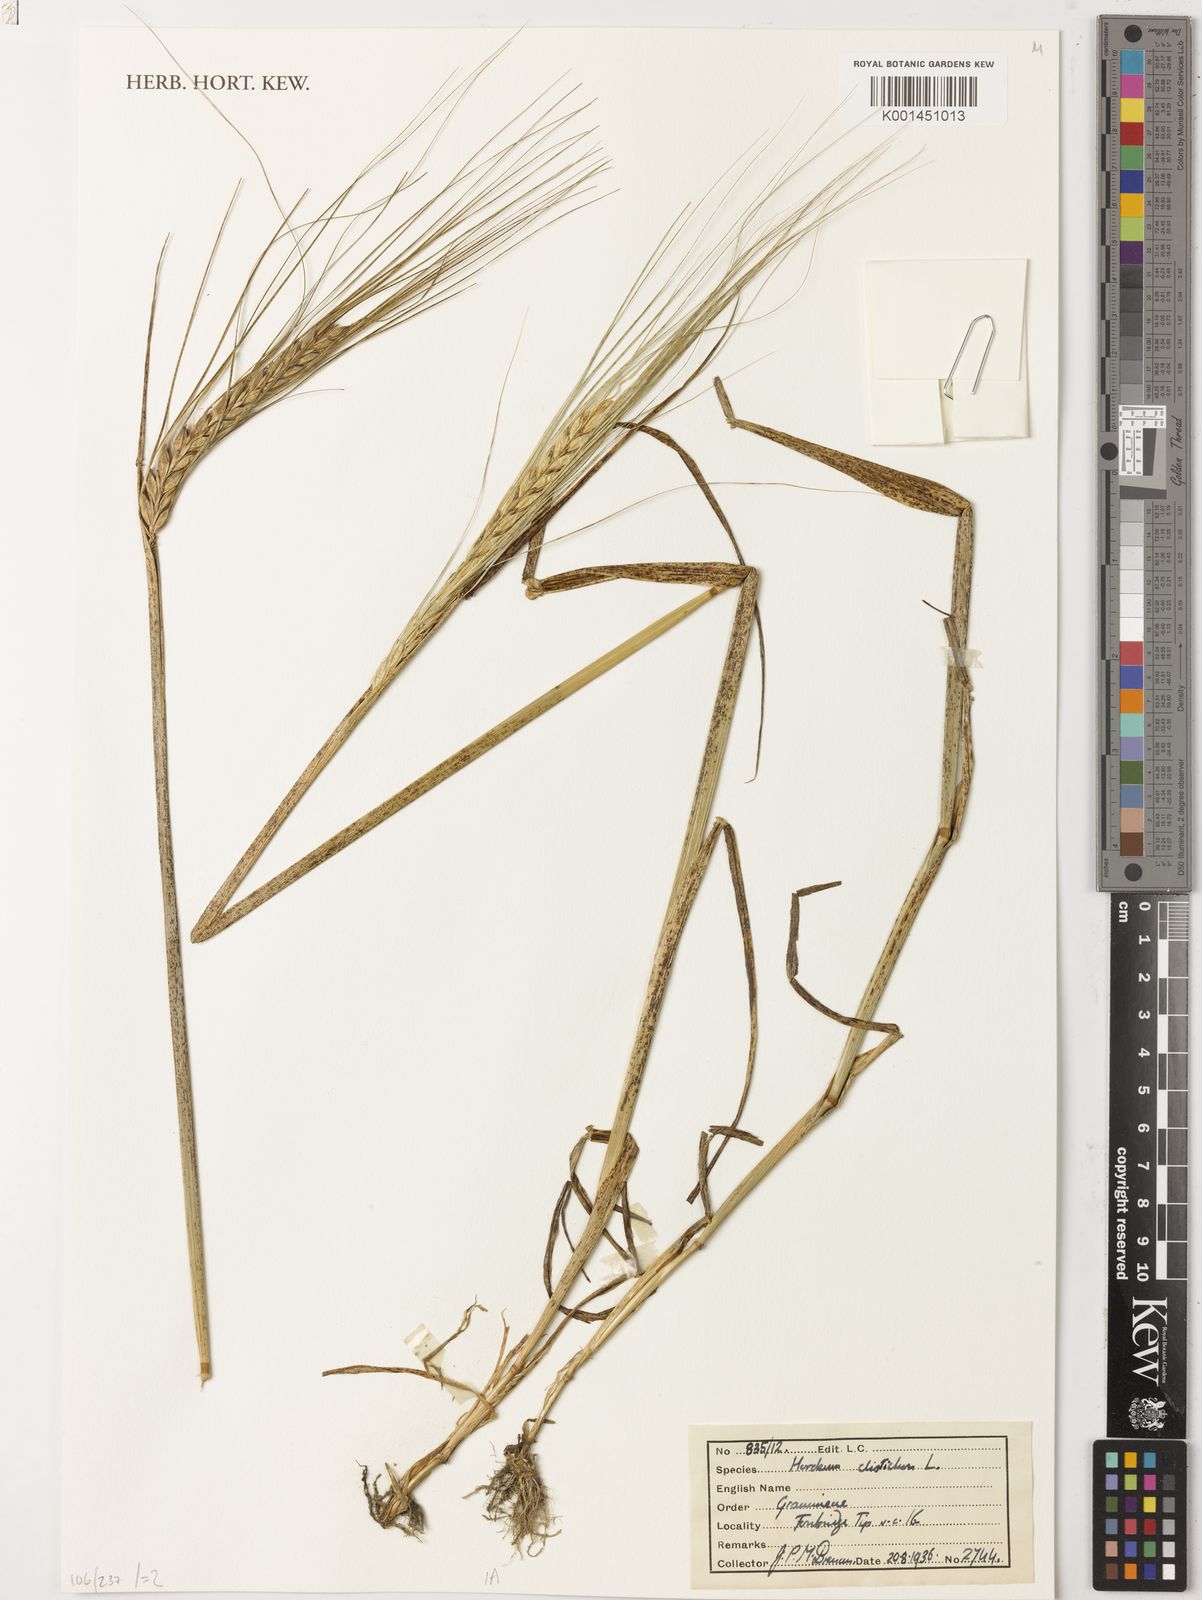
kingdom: Plantae
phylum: Tracheophyta
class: Liliopsida
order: Poales
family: Poaceae
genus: Hordeum
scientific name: Hordeum vulgare
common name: Common barley
